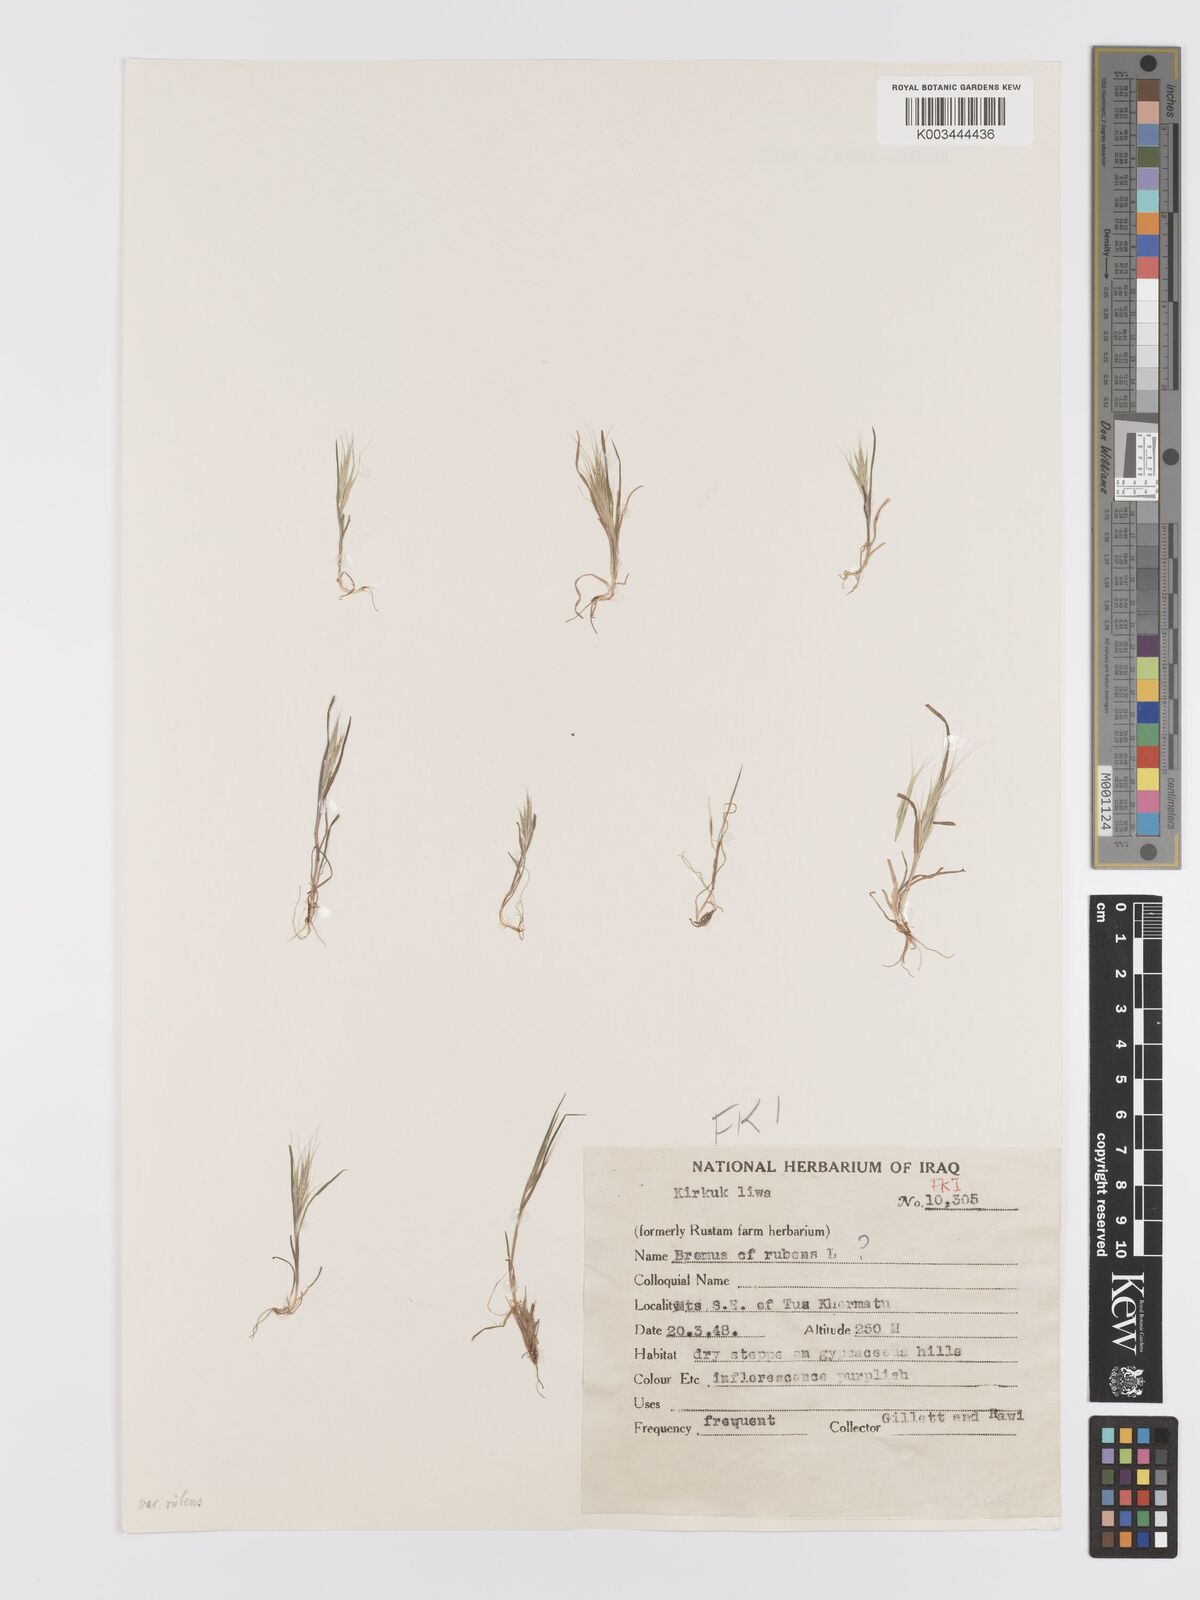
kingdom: Plantae
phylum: Tracheophyta
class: Liliopsida
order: Poales
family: Poaceae
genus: Bromus
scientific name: Bromus rubens
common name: Red brome
